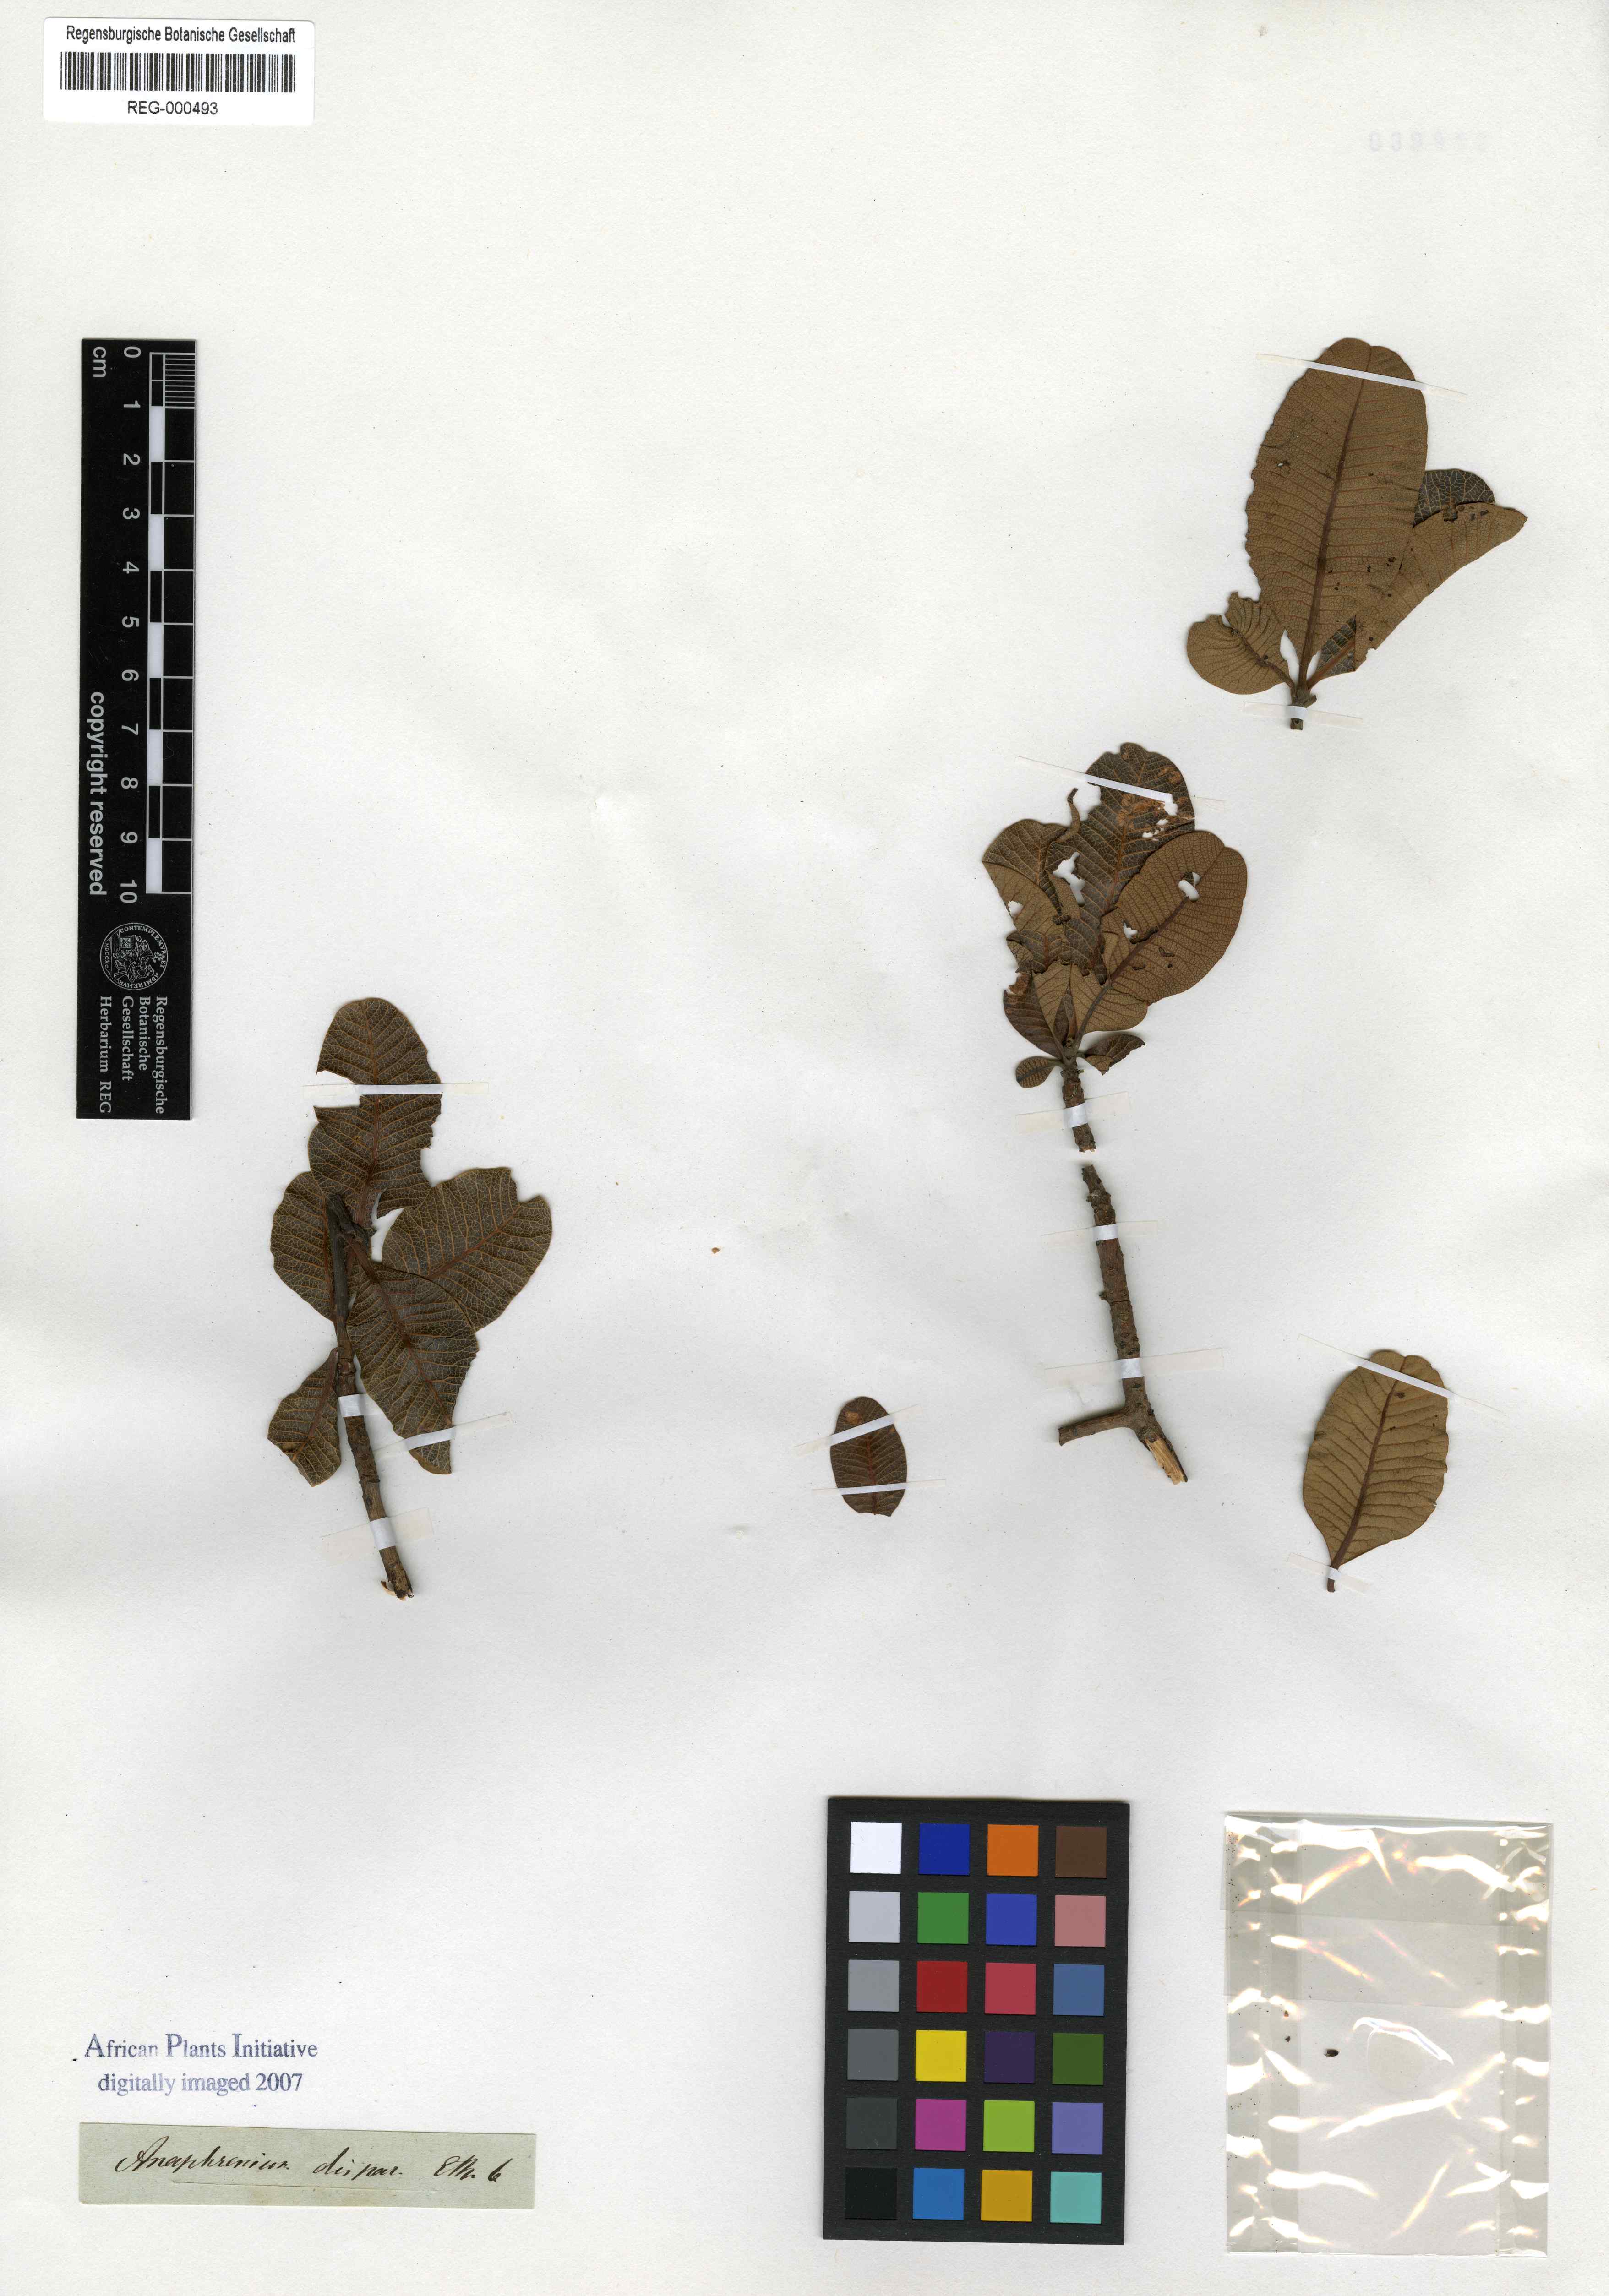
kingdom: Plantae
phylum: Tracheophyta
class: Magnoliopsida
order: Sapindales
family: Anacardiaceae
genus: Ozoroa
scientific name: Ozoroa dispar
